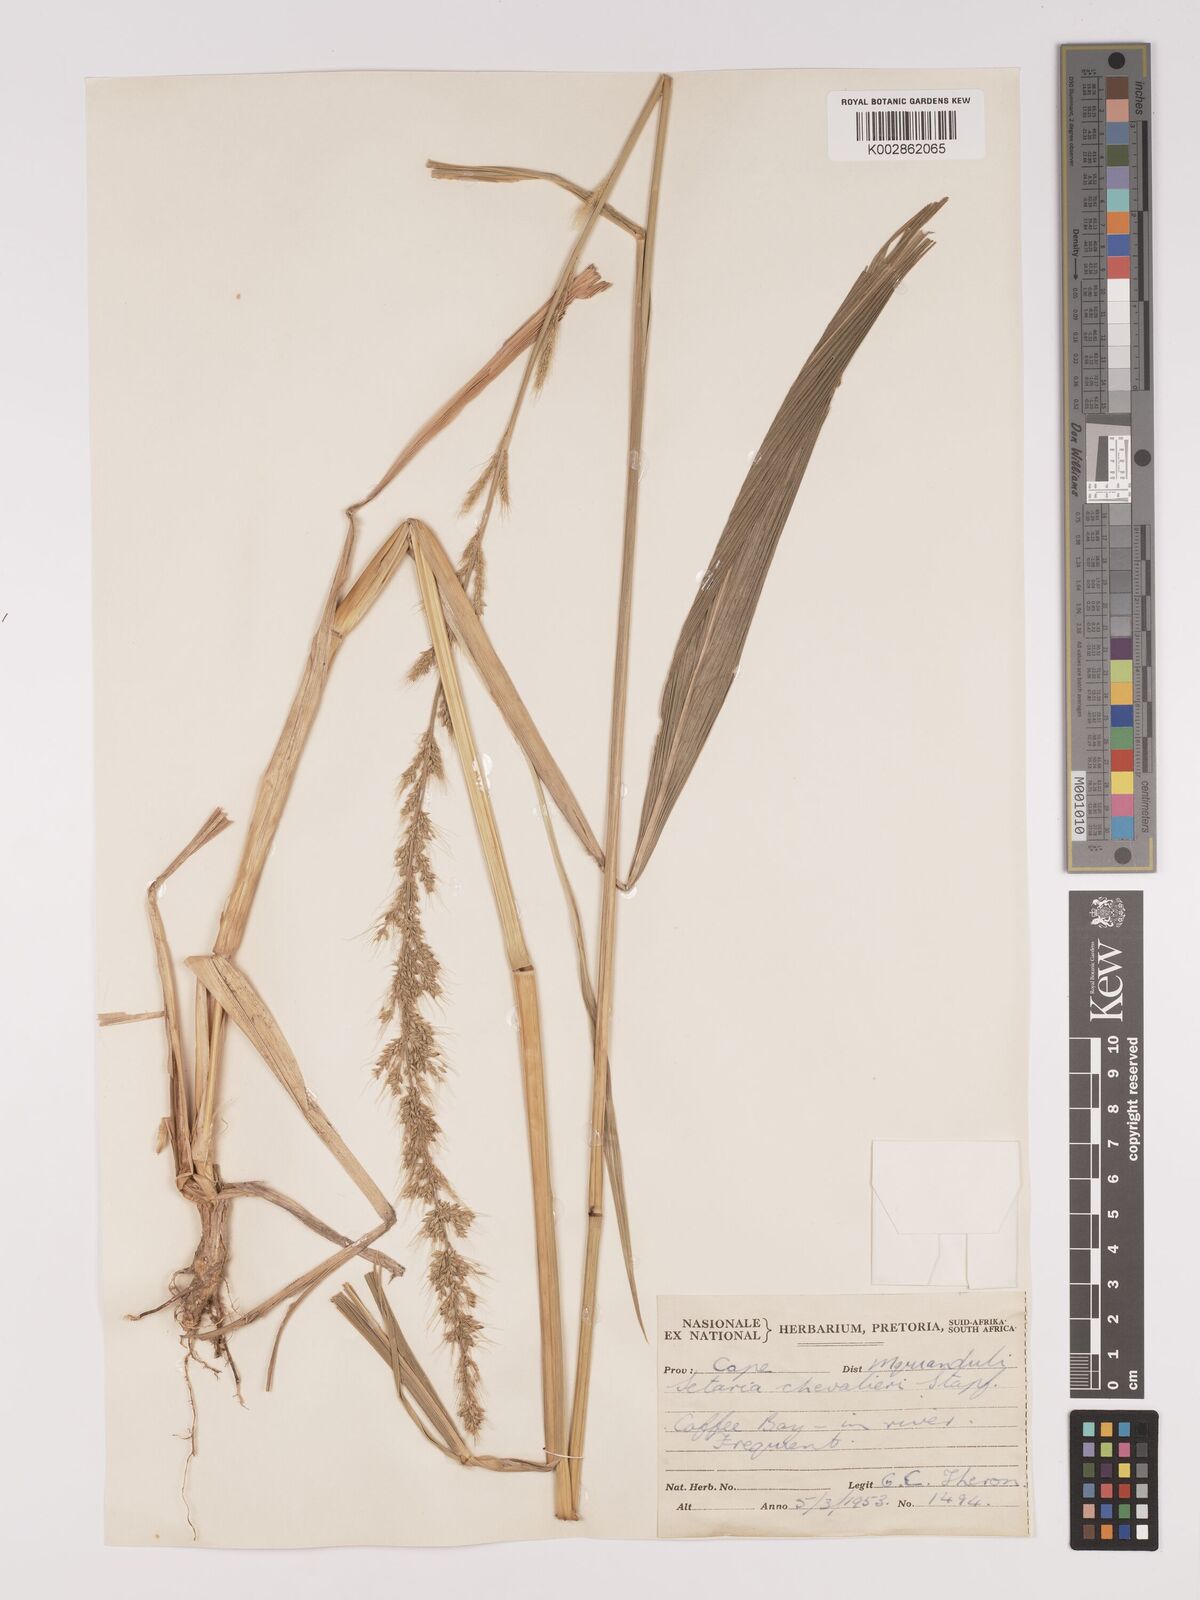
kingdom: Plantae
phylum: Tracheophyta
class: Liliopsida
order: Poales
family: Poaceae
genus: Setaria
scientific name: Setaria megaphylla
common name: Bigleaf bristlegrass
